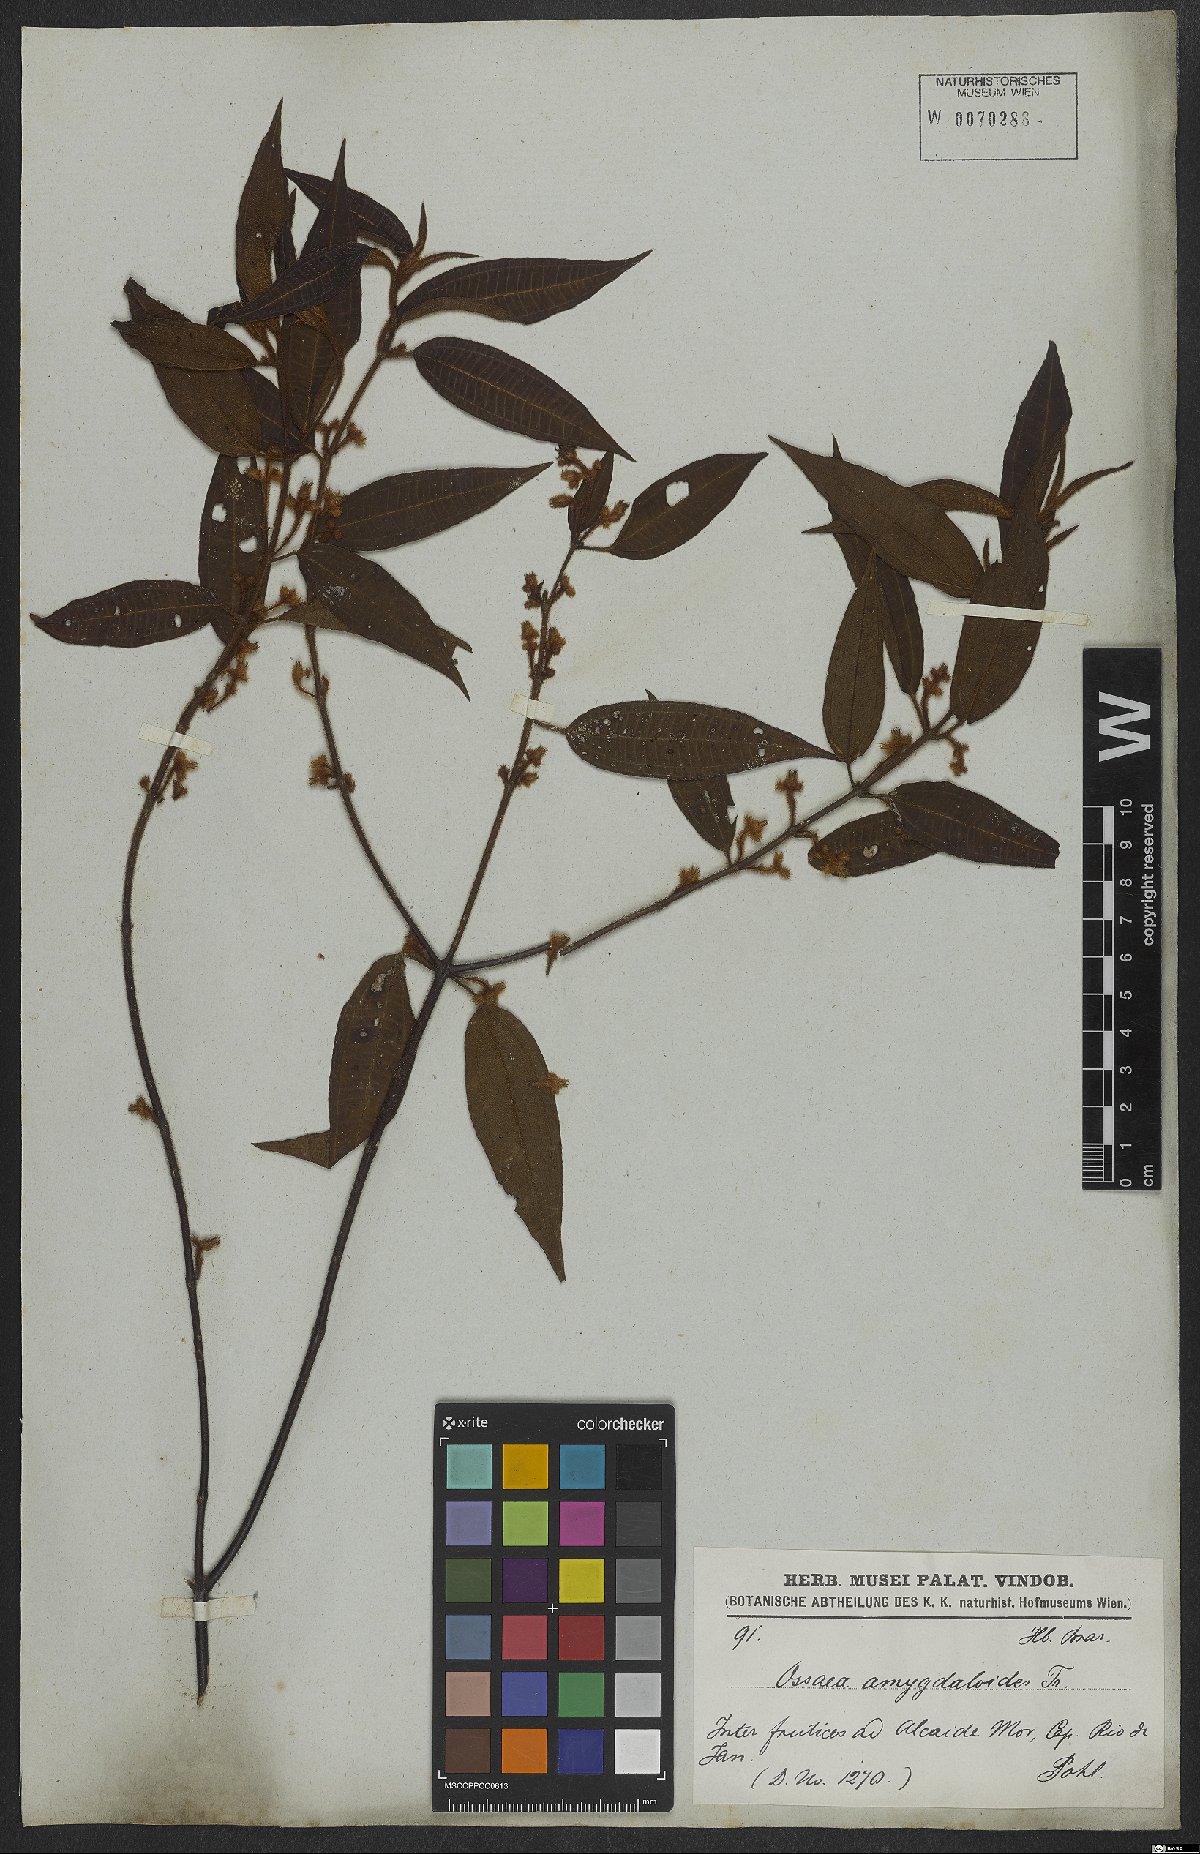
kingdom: Plantae
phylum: Tracheophyta
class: Magnoliopsida
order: Myrtales
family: Melastomataceae
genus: Miconia
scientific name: Miconia amygdaloides
